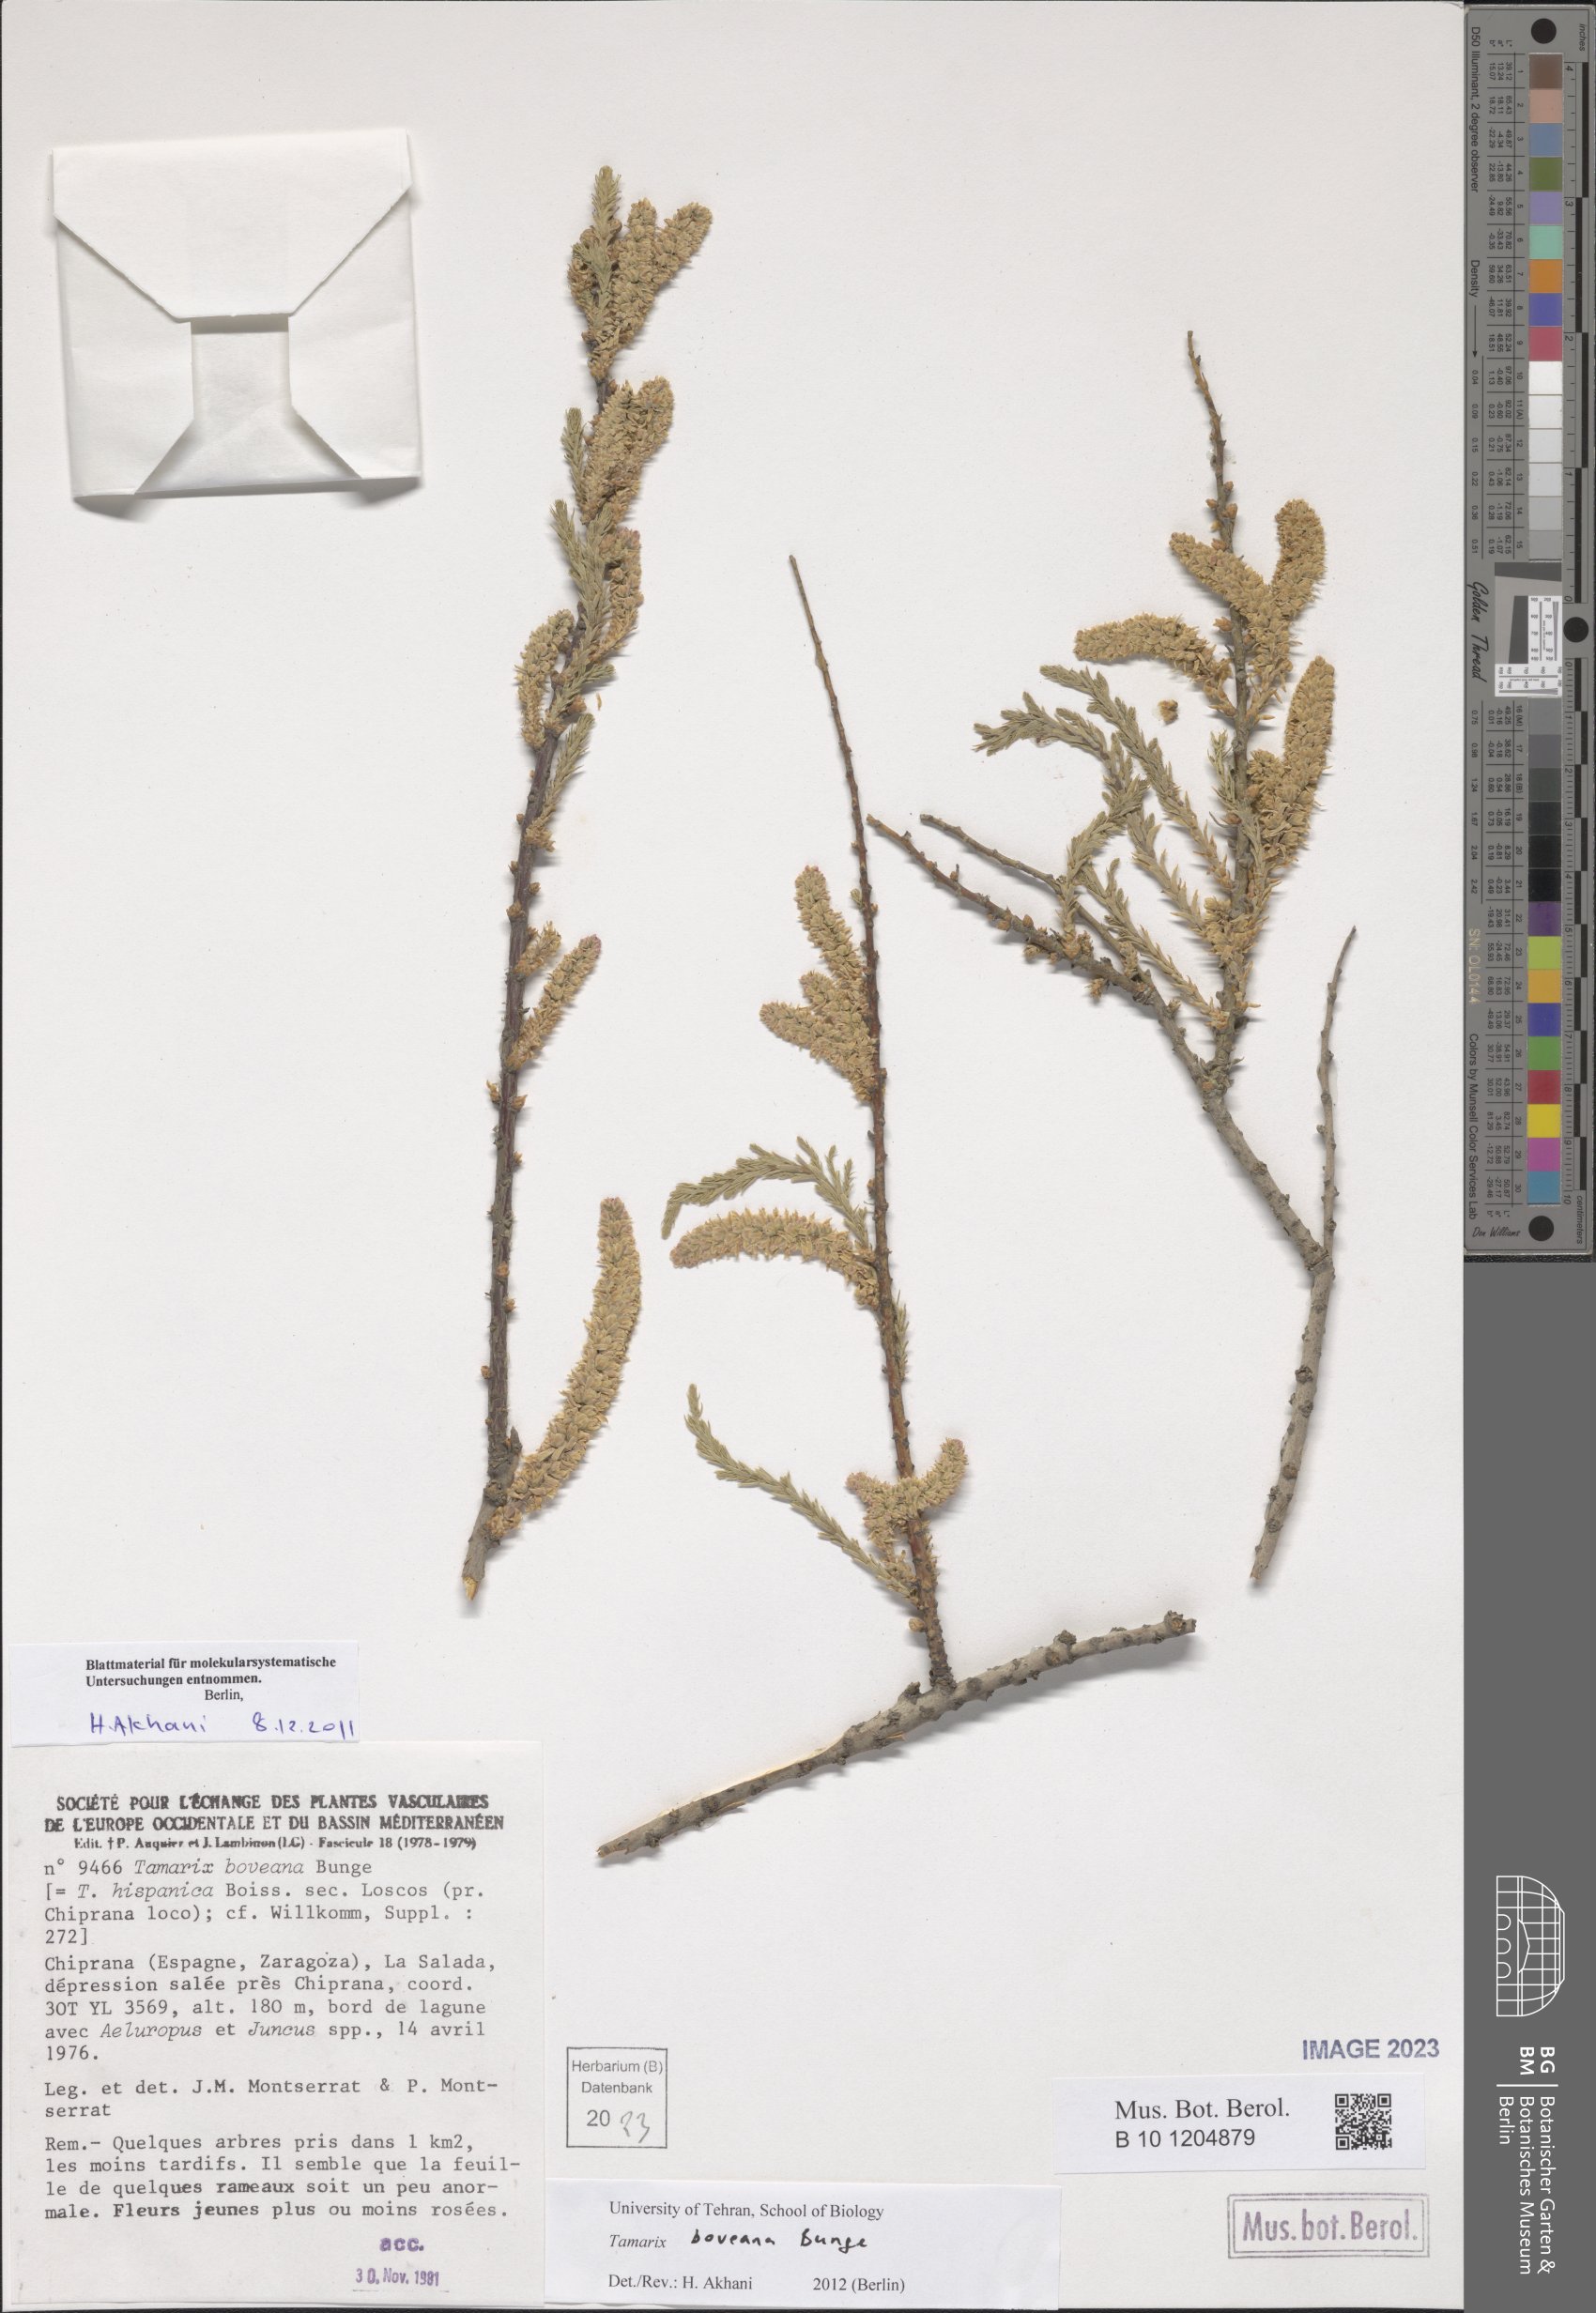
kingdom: Plantae
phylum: Tracheophyta
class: Magnoliopsida
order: Caryophyllales
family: Tamaricaceae
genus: Tamarix
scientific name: Tamarix boveana
